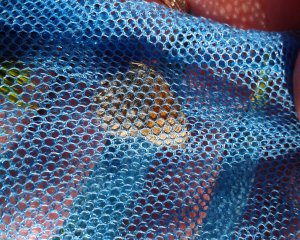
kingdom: Animalia
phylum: Arthropoda
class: Insecta
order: Lepidoptera
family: Nymphalidae
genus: Coenonympha
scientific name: Coenonympha tullia
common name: Large Heath
